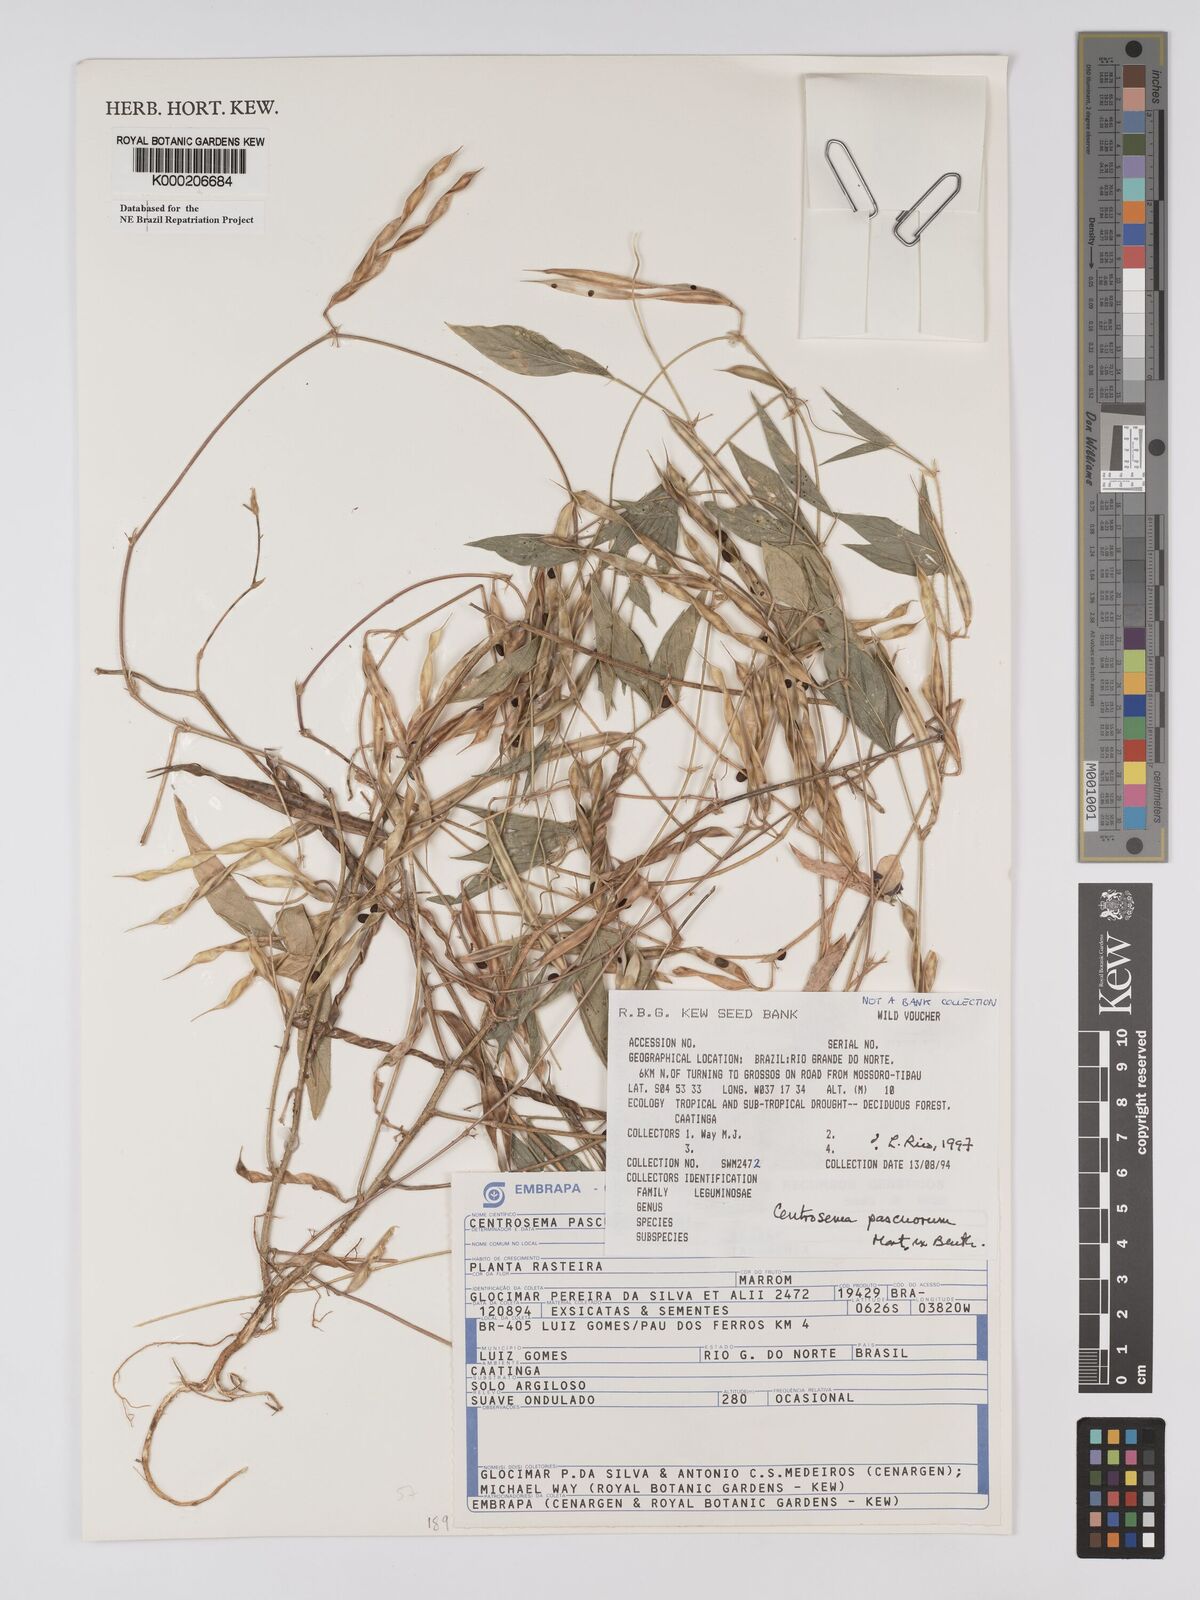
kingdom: Plantae
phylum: Tracheophyta
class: Magnoliopsida
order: Fabales
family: Fabaceae
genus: Centrosema
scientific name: Centrosema pascuorum
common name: Centurion
